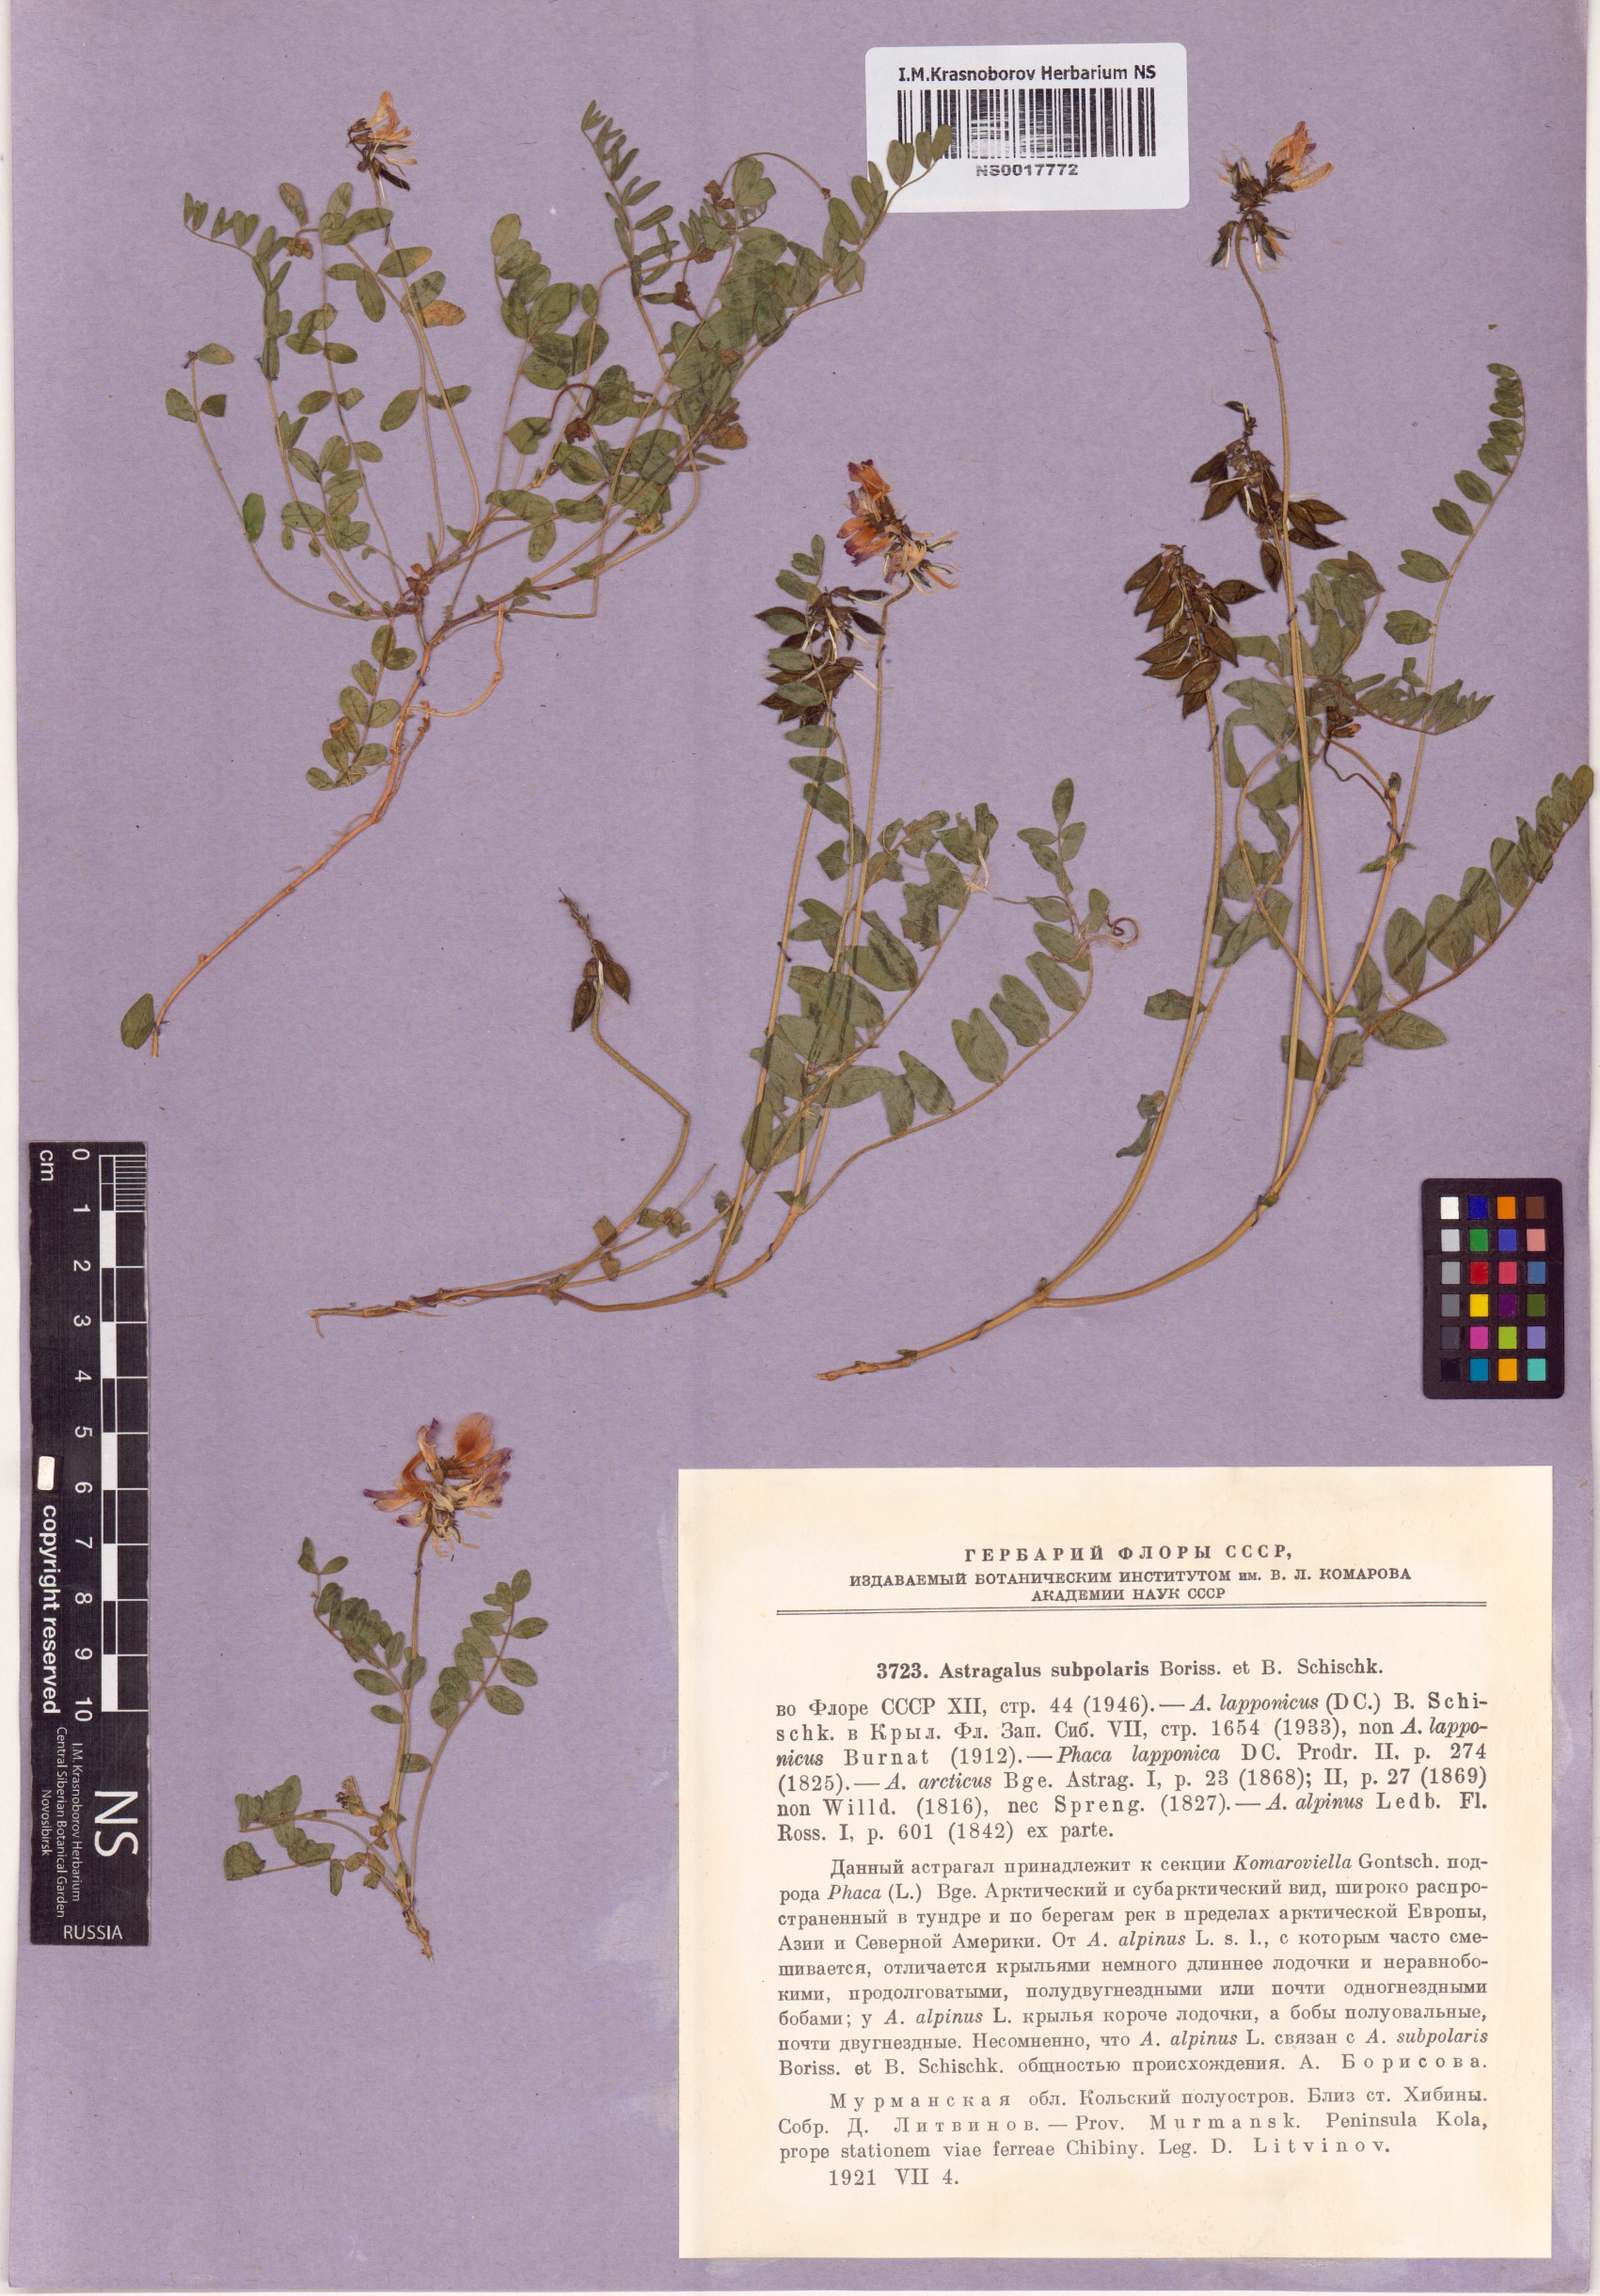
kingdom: Plantae
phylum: Tracheophyta
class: Magnoliopsida
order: Fabales
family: Fabaceae
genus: Astragalus
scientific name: Astragalus norvegicus
